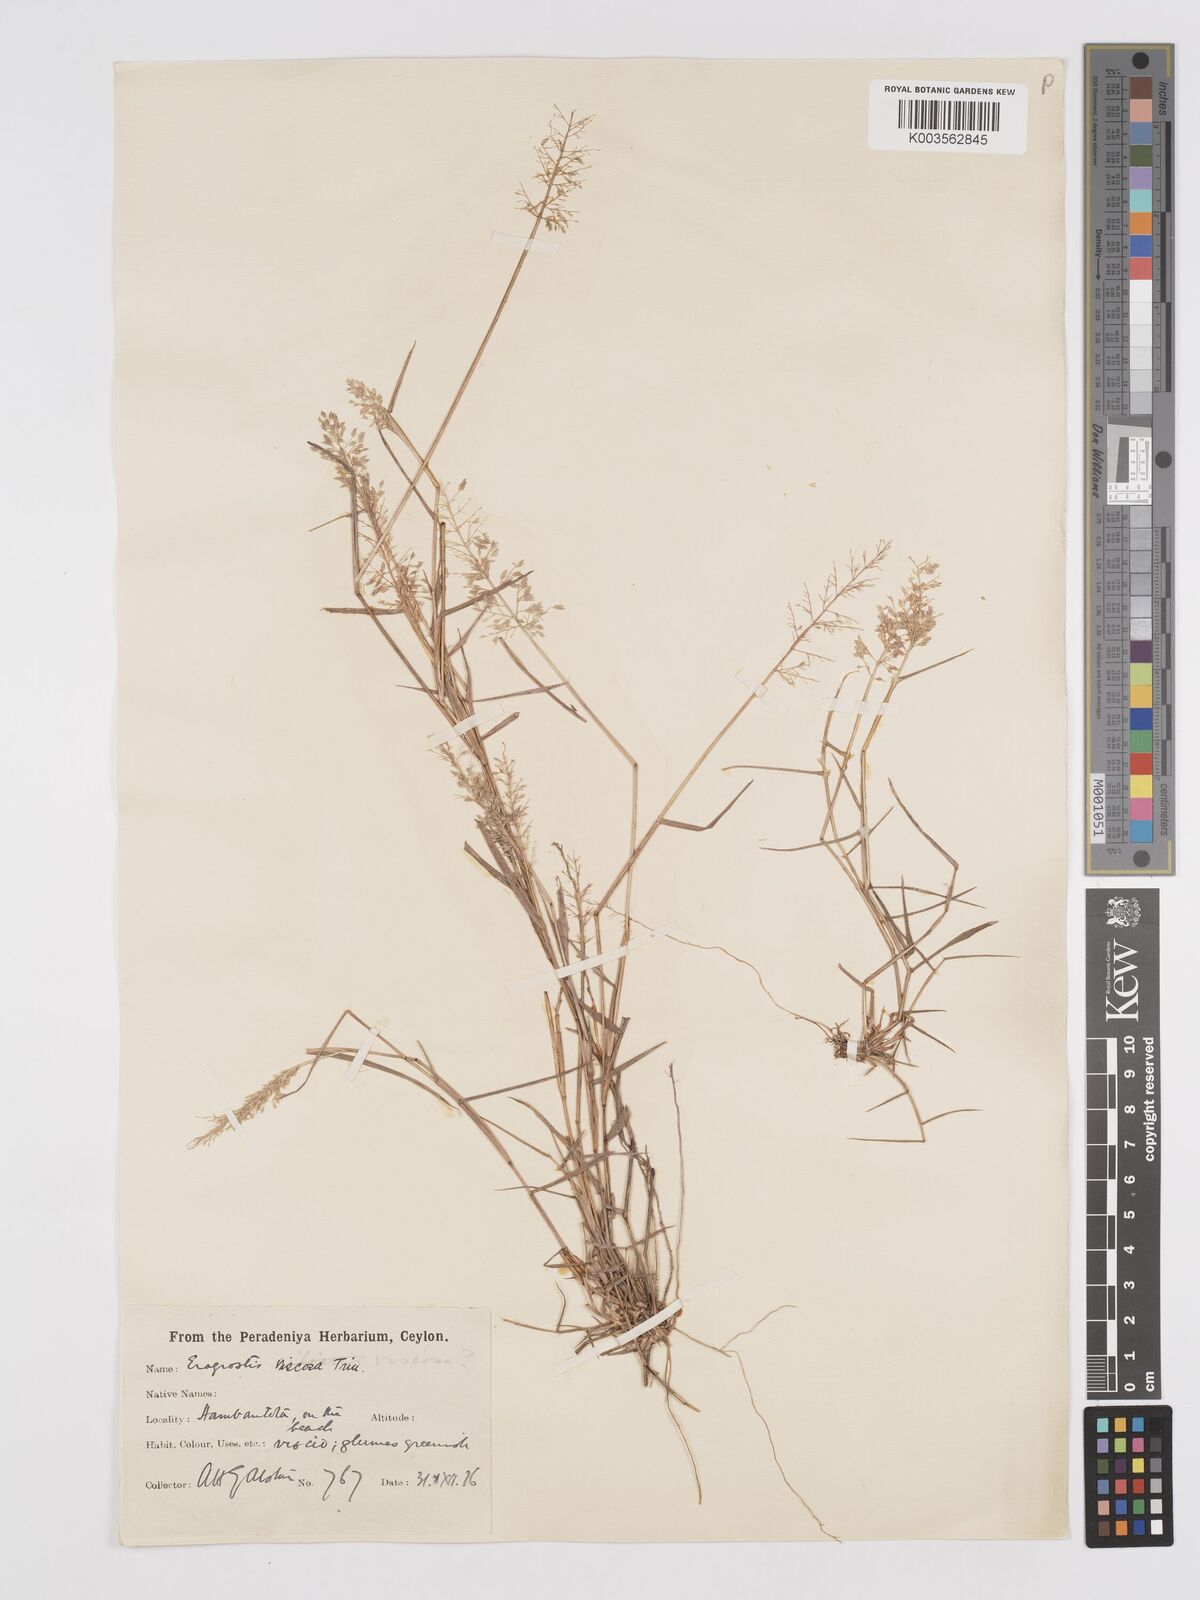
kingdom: Plantae
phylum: Tracheophyta
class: Liliopsida
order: Poales
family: Poaceae
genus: Eragrostis
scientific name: Eragrostis viscosa
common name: Sticky love grass
